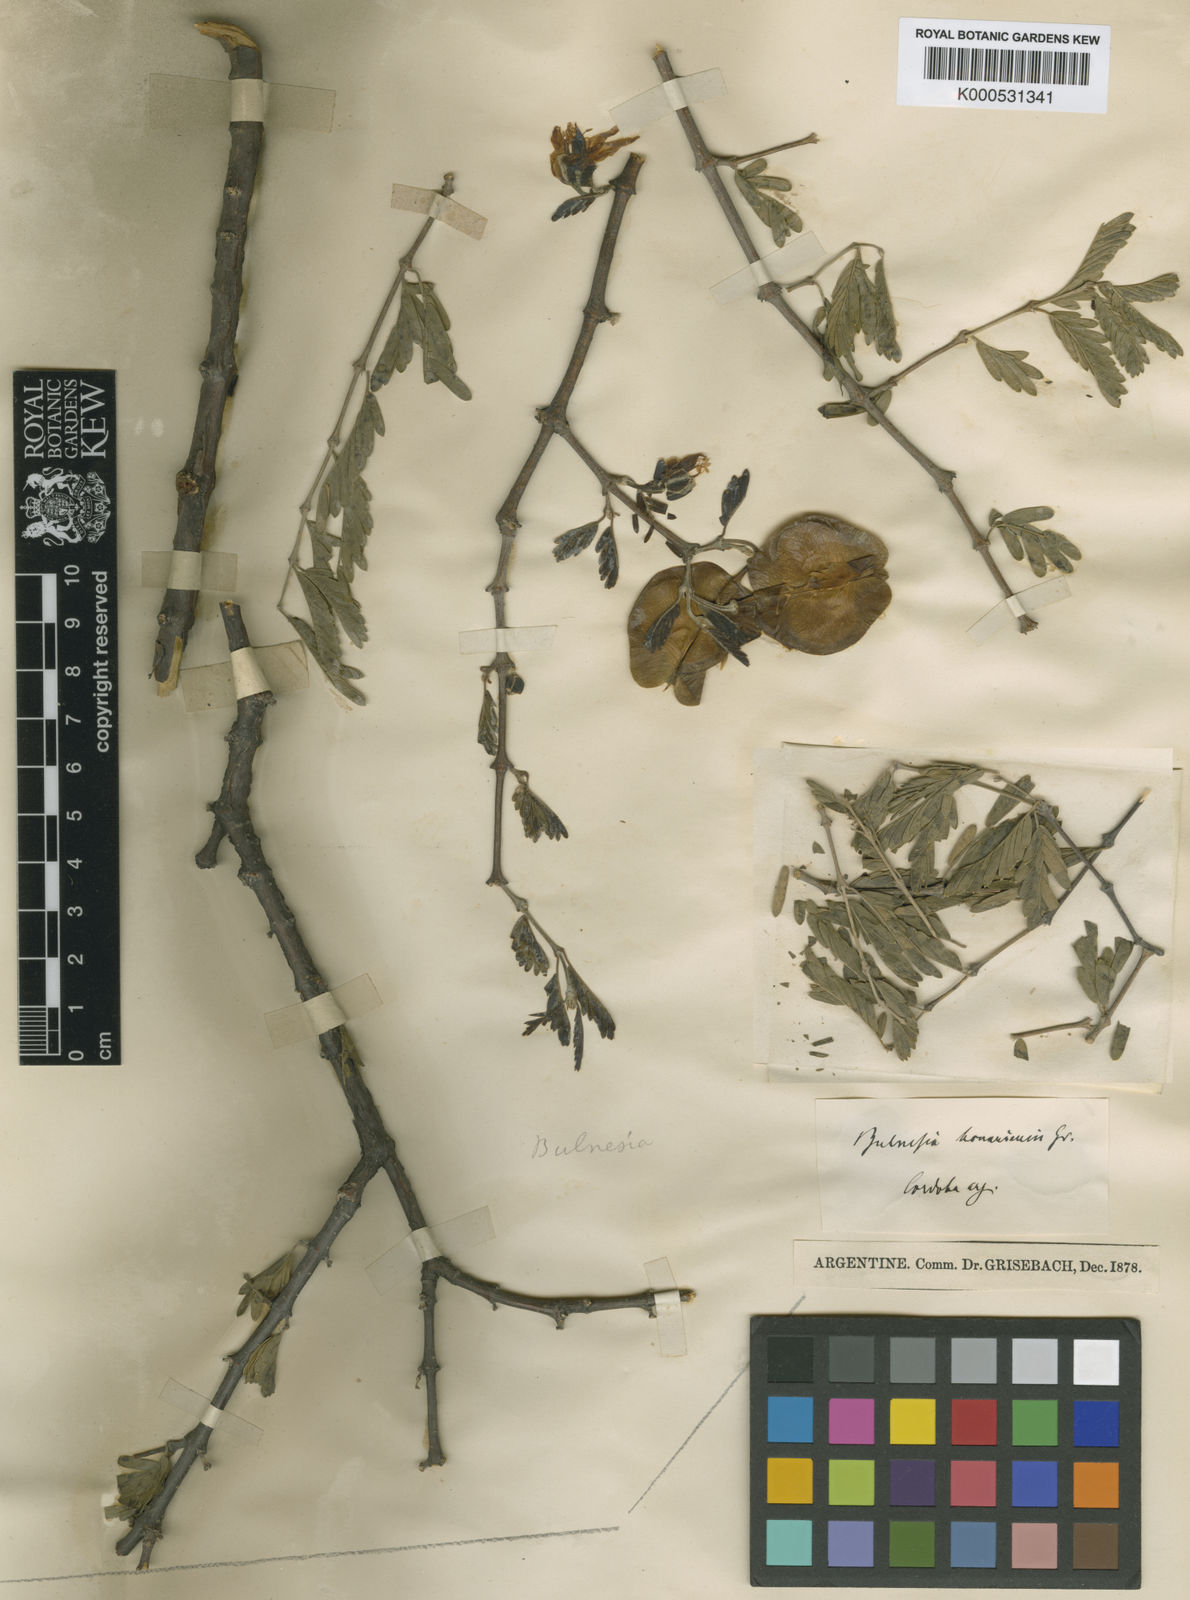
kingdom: Plantae
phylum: Tracheophyta
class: Magnoliopsida
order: Zygophyllales
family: Zygophyllaceae
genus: Gonopterodendron
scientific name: Gonopterodendron bonariense
